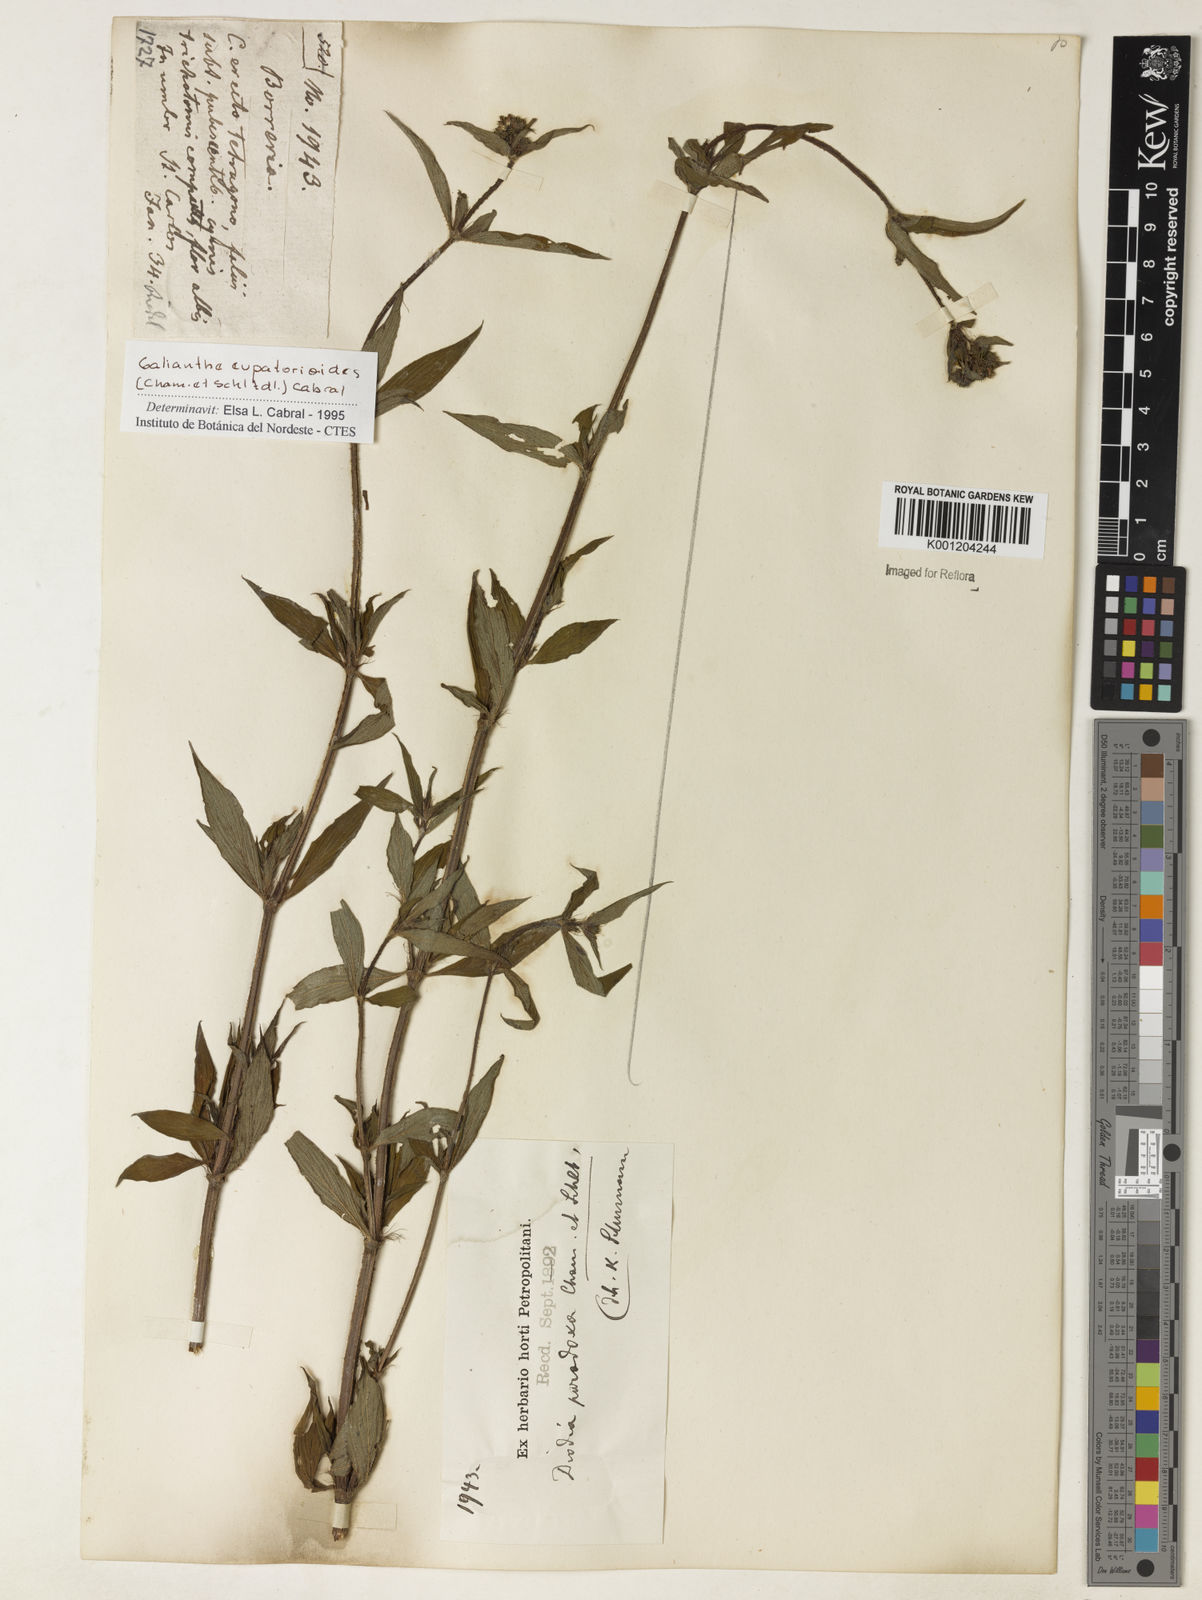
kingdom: Plantae
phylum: Tracheophyta
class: Magnoliopsida
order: Gentianales
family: Rubiaceae
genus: Galianthe
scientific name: Galianthe eupatorioides
